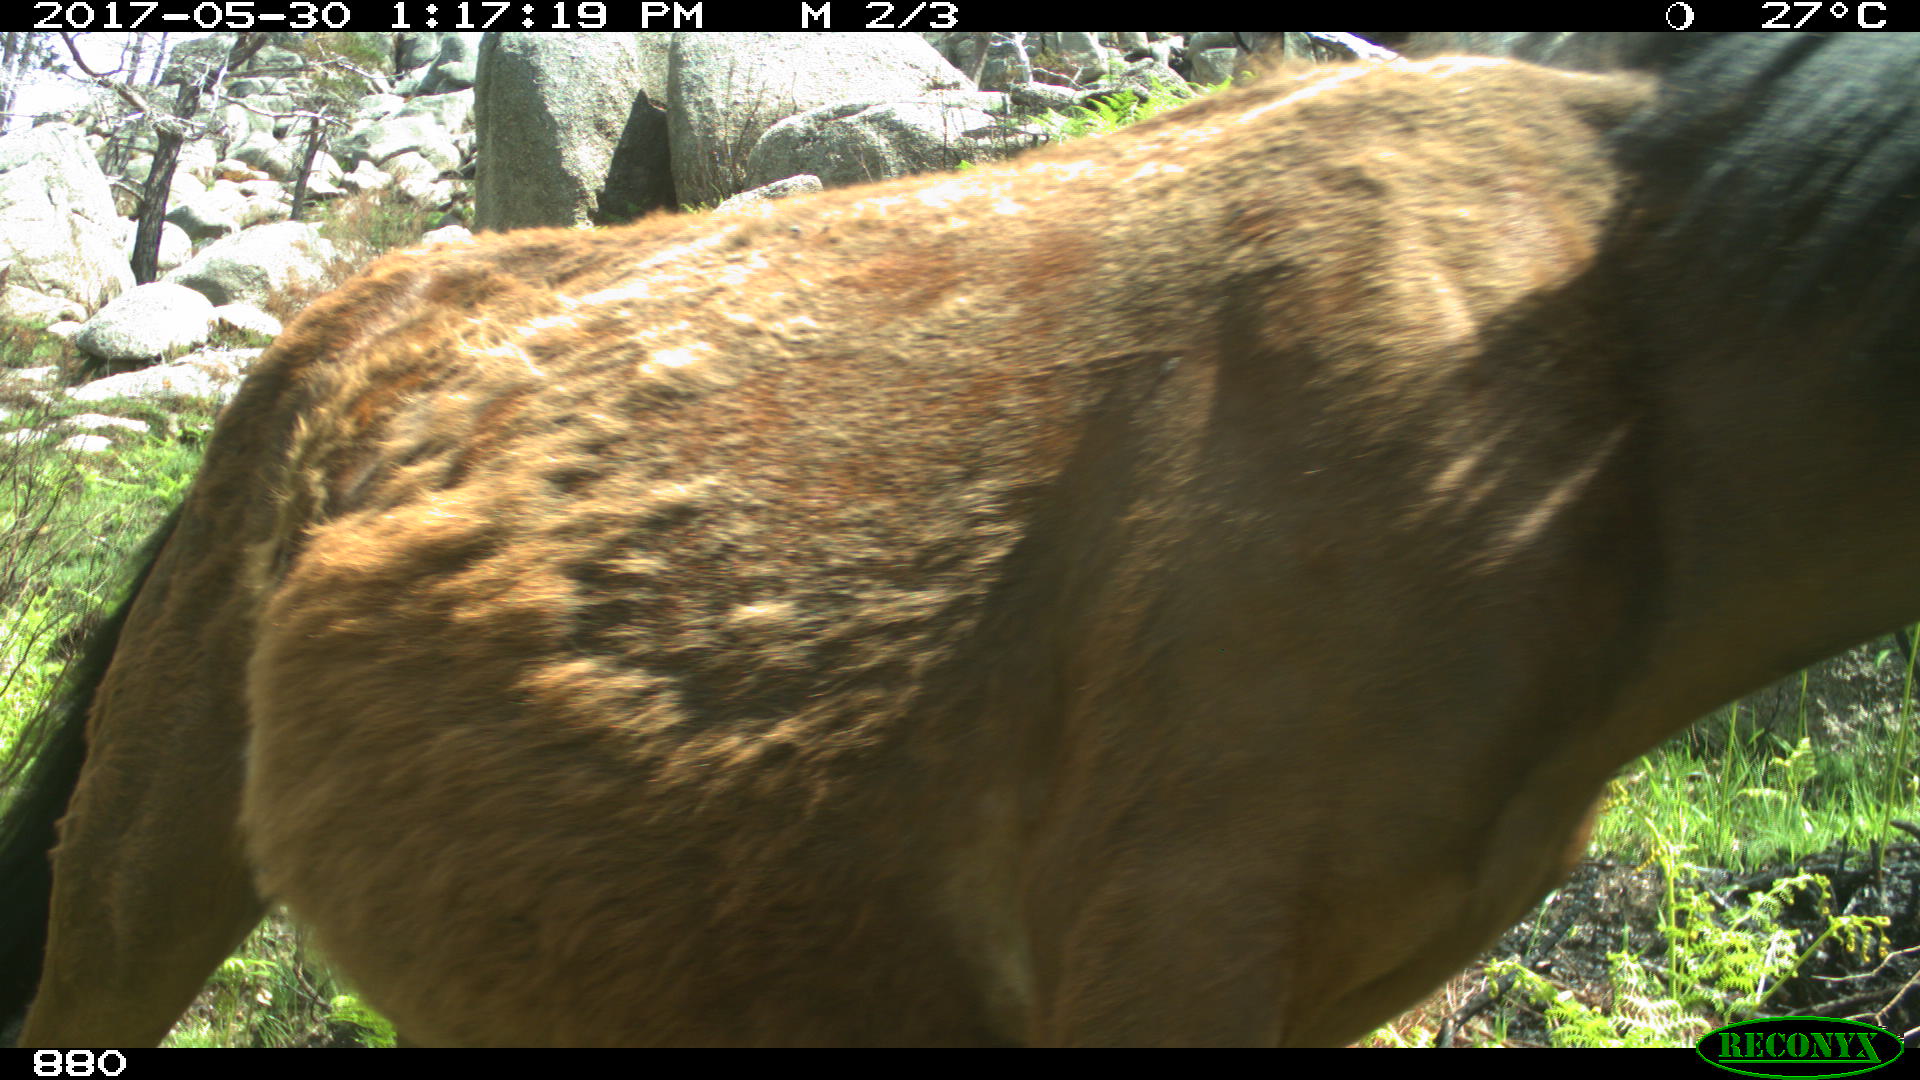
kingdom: Animalia
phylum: Chordata
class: Mammalia
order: Perissodactyla
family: Equidae
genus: Equus
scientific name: Equus caballus
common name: Horse
